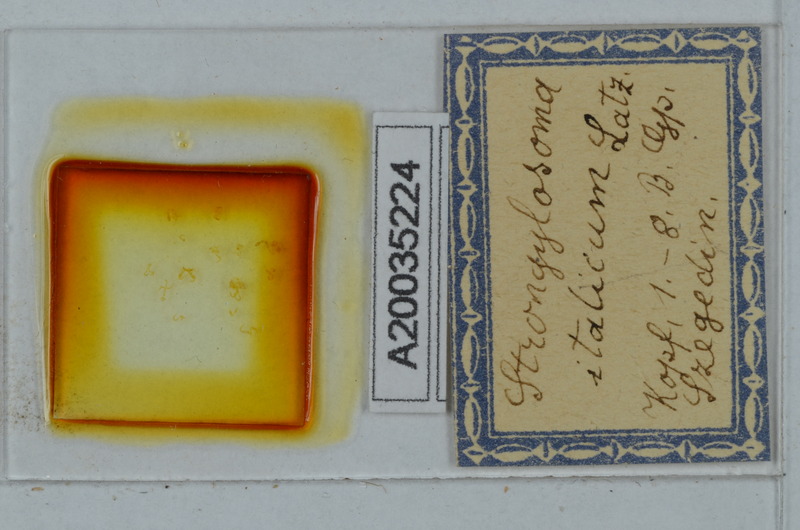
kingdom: Animalia
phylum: Arthropoda
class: Diplopoda
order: Polydesmida
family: Paradoxosomatidae
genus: Strongylosoma
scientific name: Strongylosoma italica
